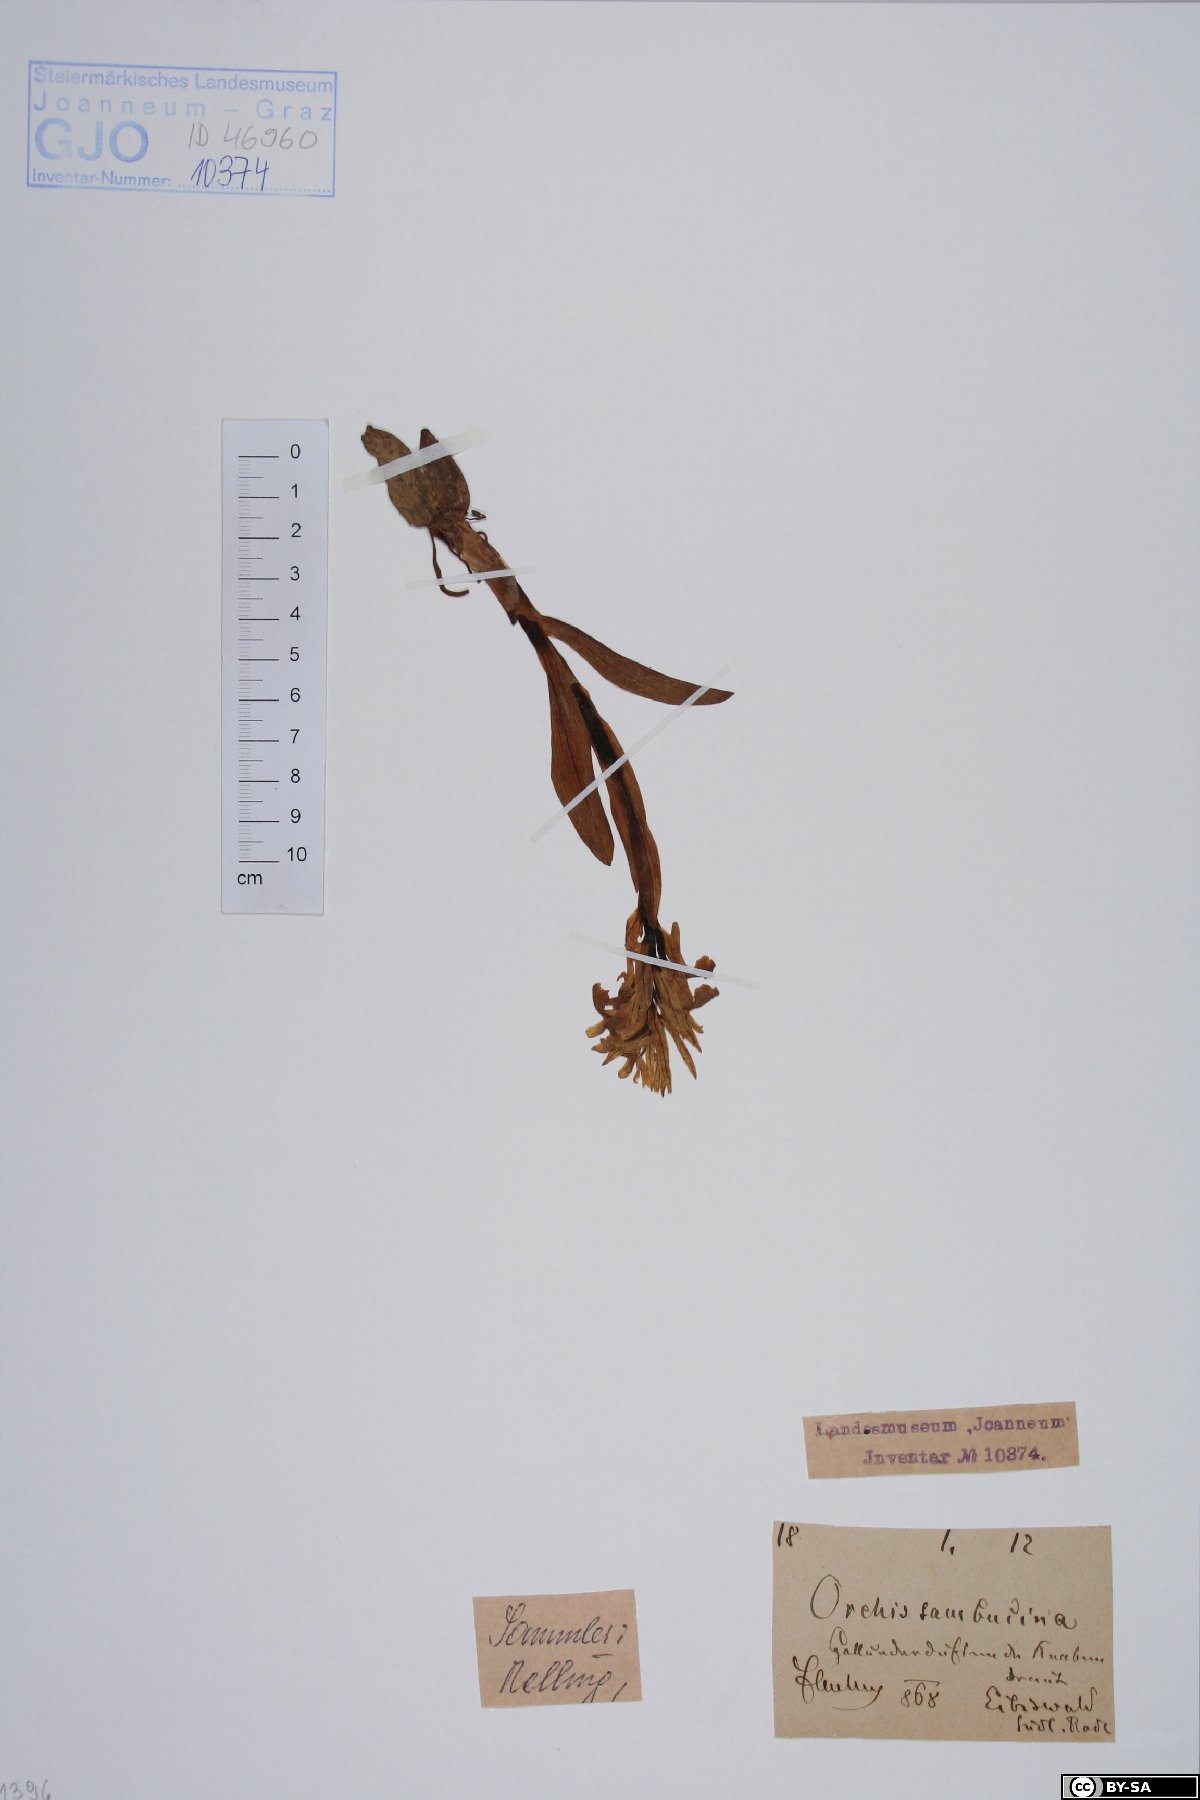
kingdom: Plantae
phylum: Tracheophyta
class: Liliopsida
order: Asparagales
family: Orchidaceae
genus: Dactylorhiza
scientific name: Dactylorhiza sambucina
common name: Elder-flowered orchid
